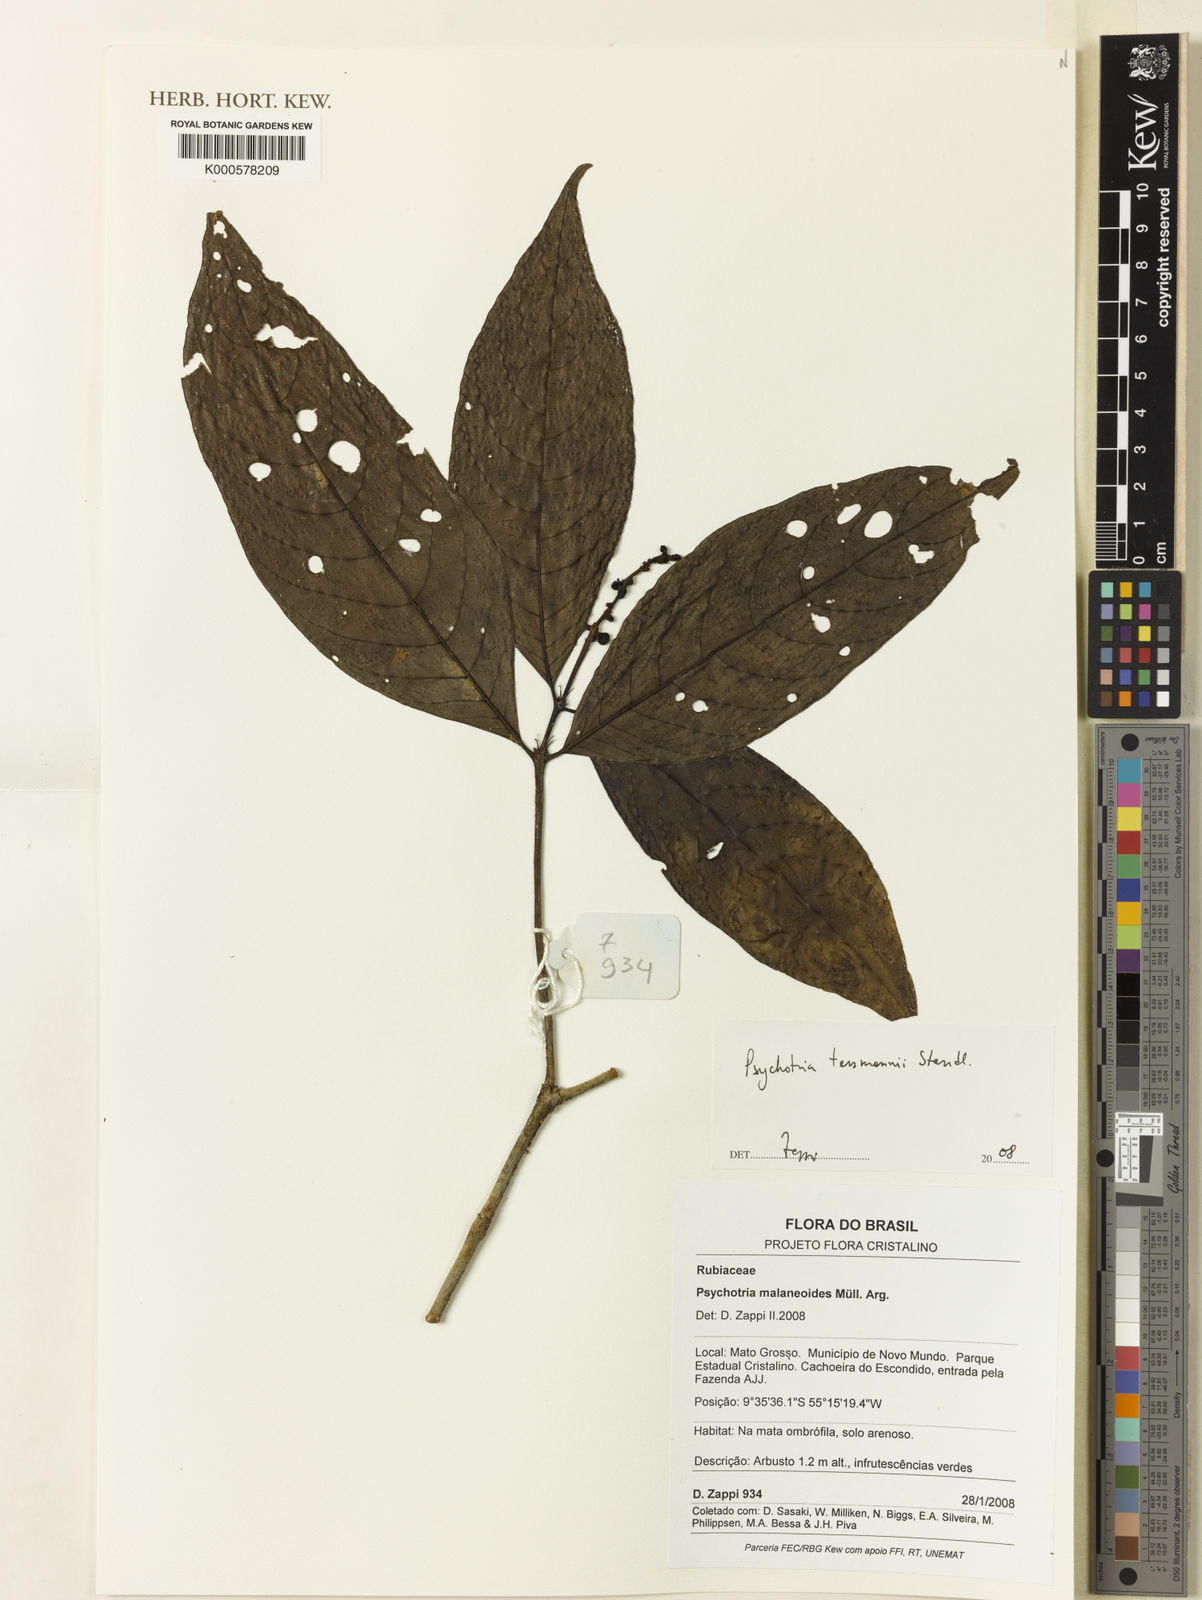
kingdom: Plantae
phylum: Tracheophyta
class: Magnoliopsida
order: Gentianales
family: Rubiaceae
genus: Palicourea
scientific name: Palicourea subfusca
